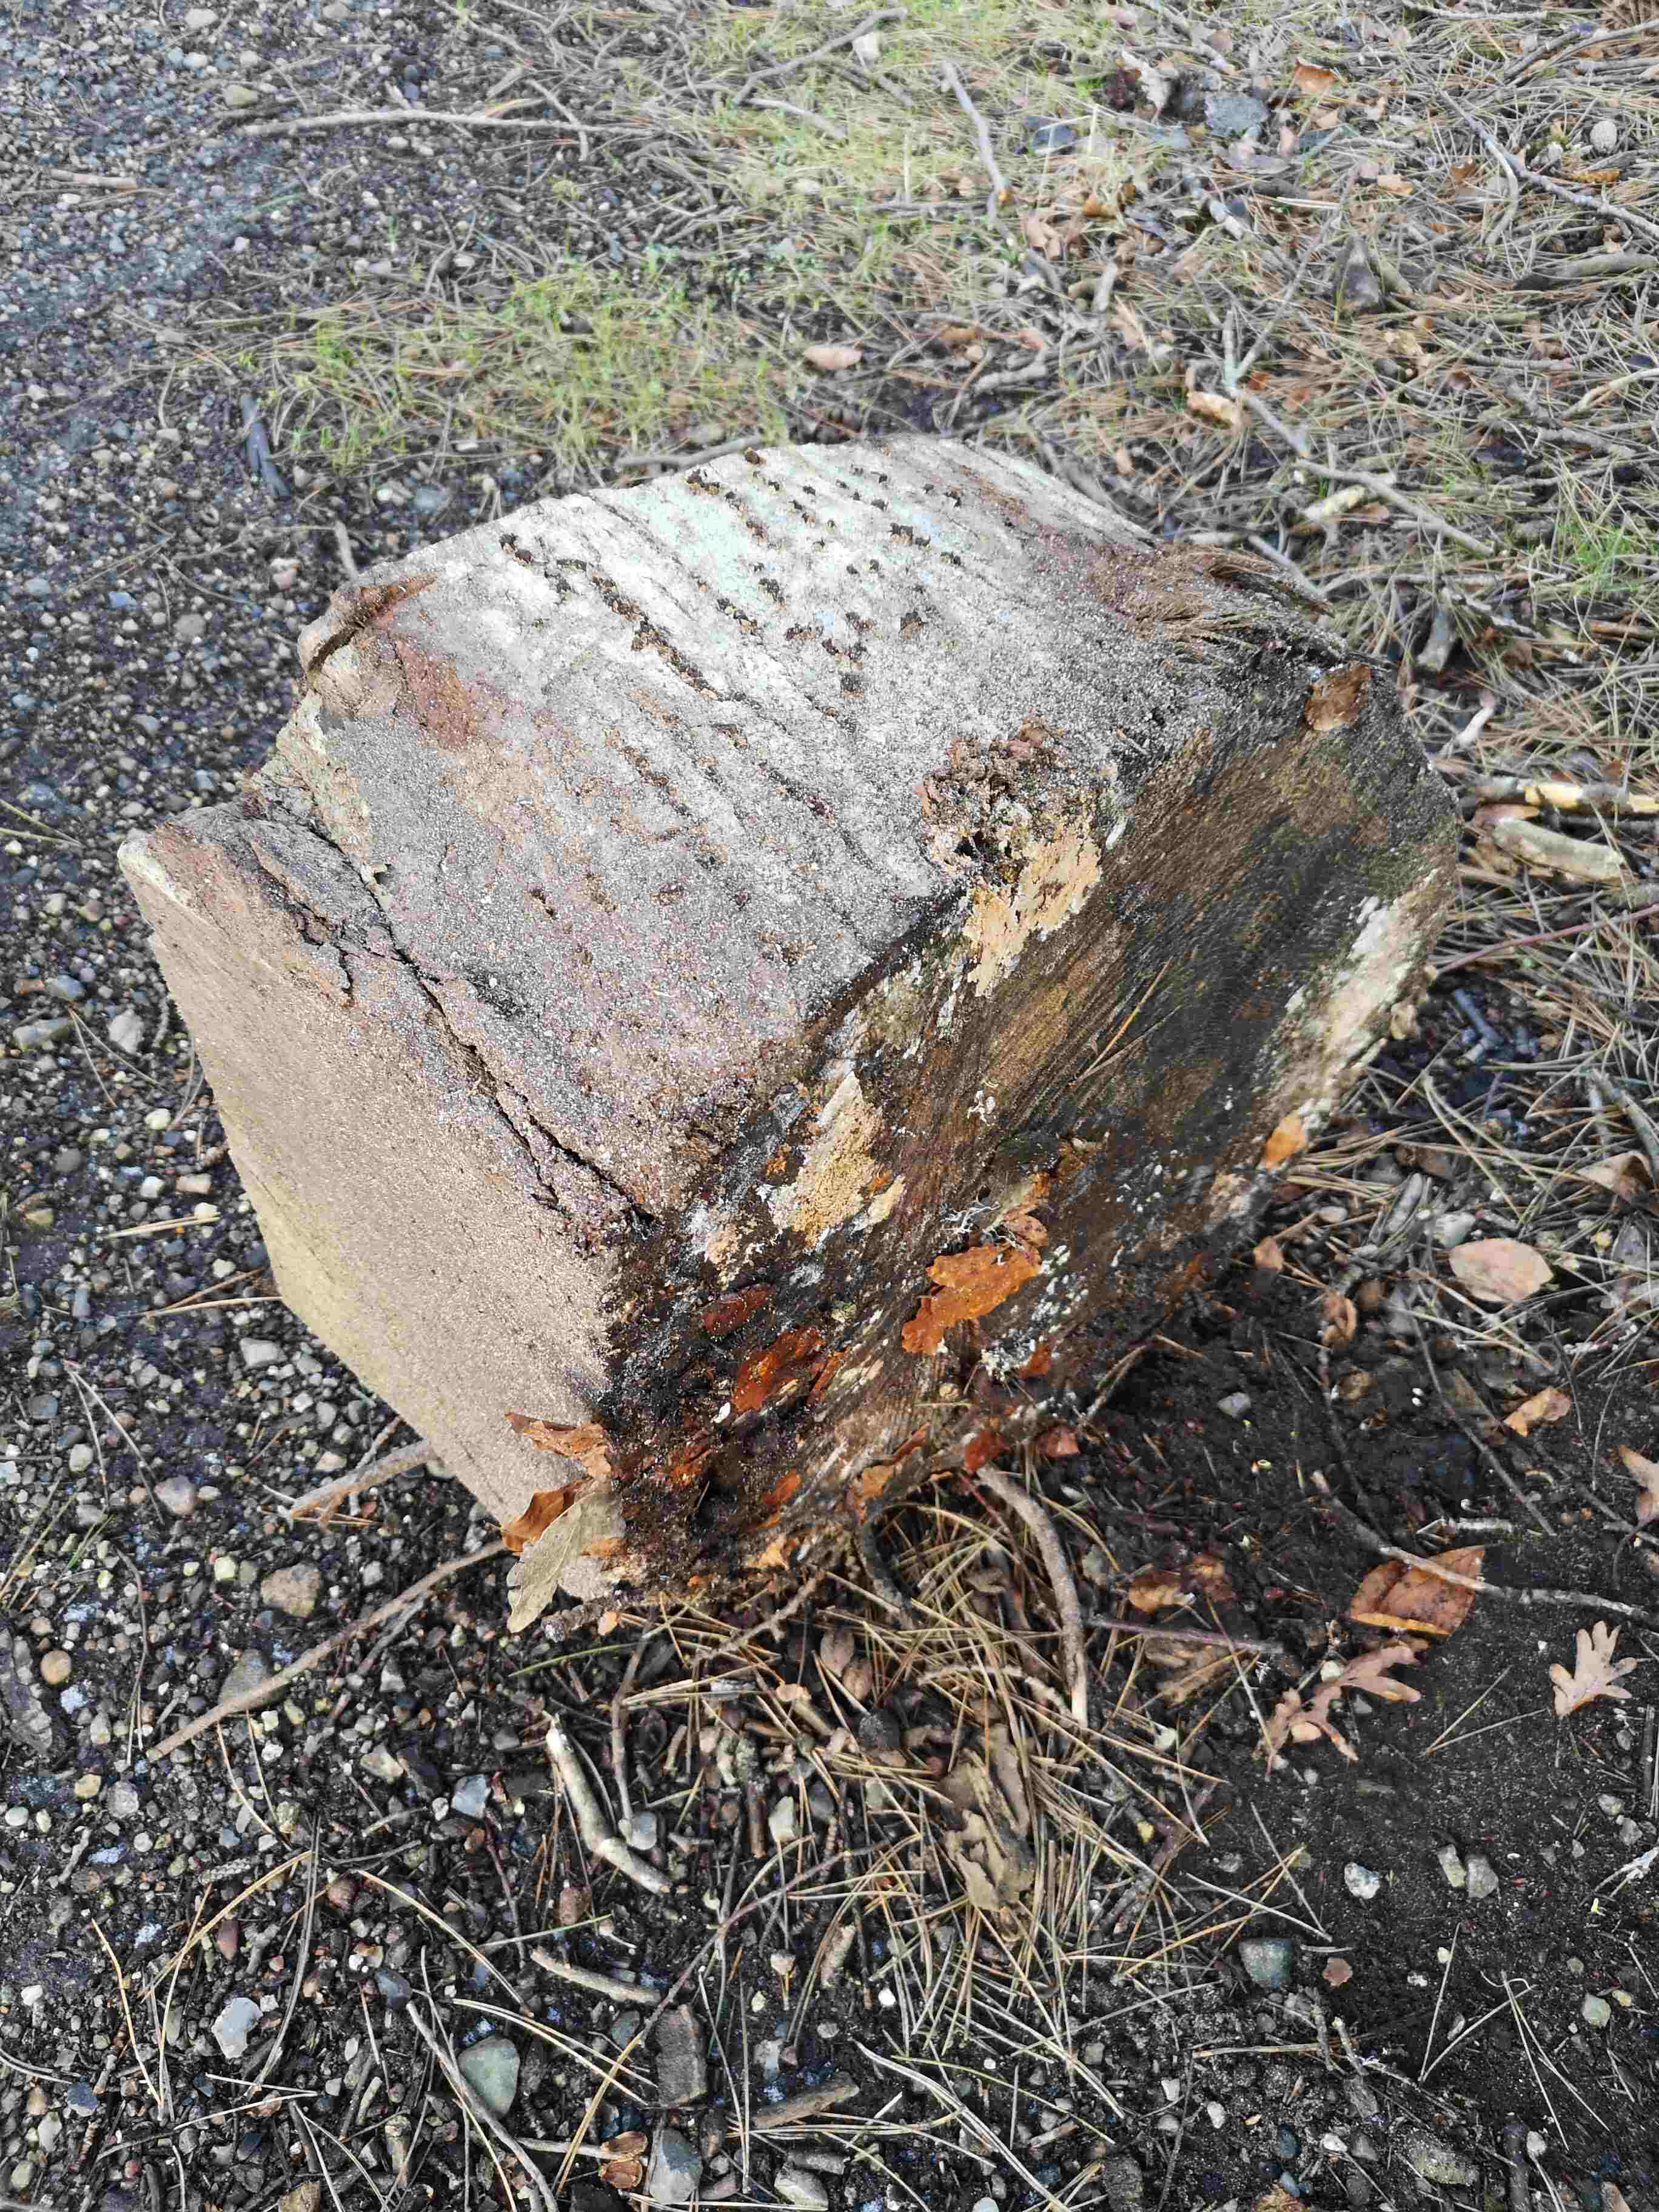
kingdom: Fungi
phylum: Basidiomycota
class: Agaricomycetes
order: Corticiales
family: Corticiaceae
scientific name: Corticiaceae
